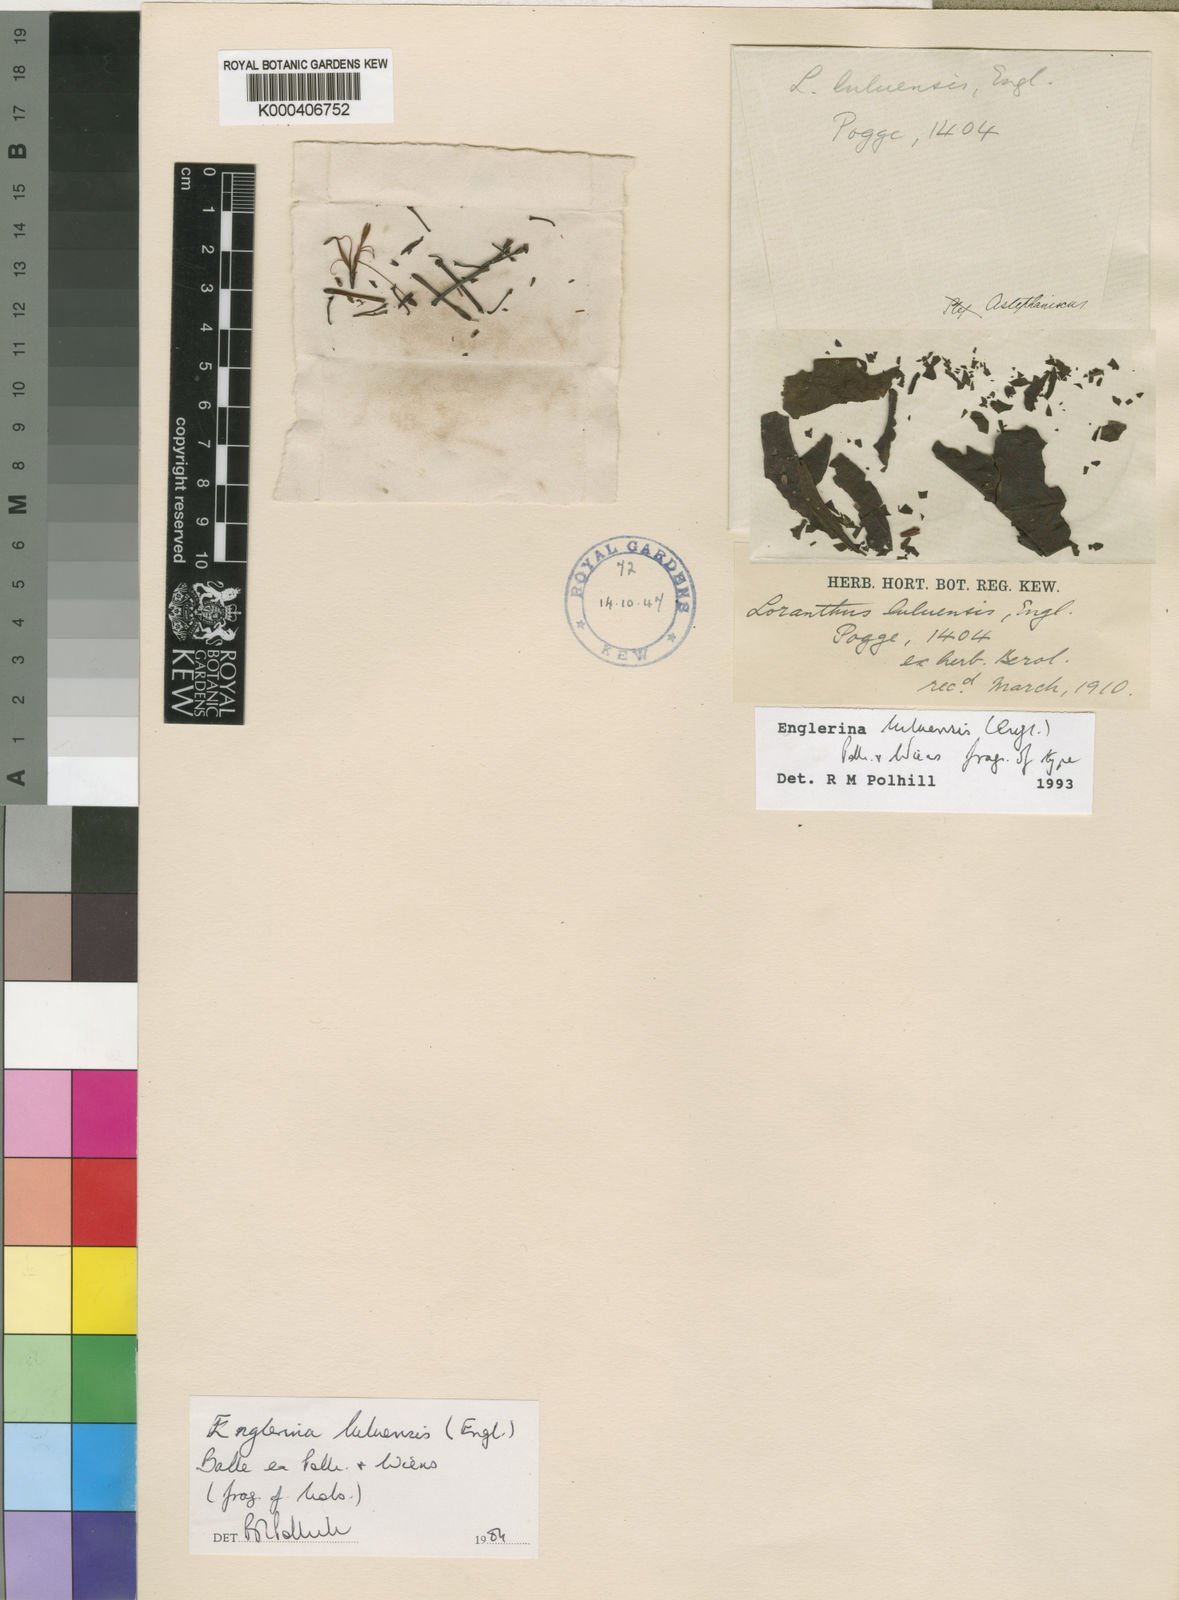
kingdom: Plantae
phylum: Tracheophyta
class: Magnoliopsida
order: Santalales
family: Loranthaceae
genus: Englerina
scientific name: Englerina luluensis
